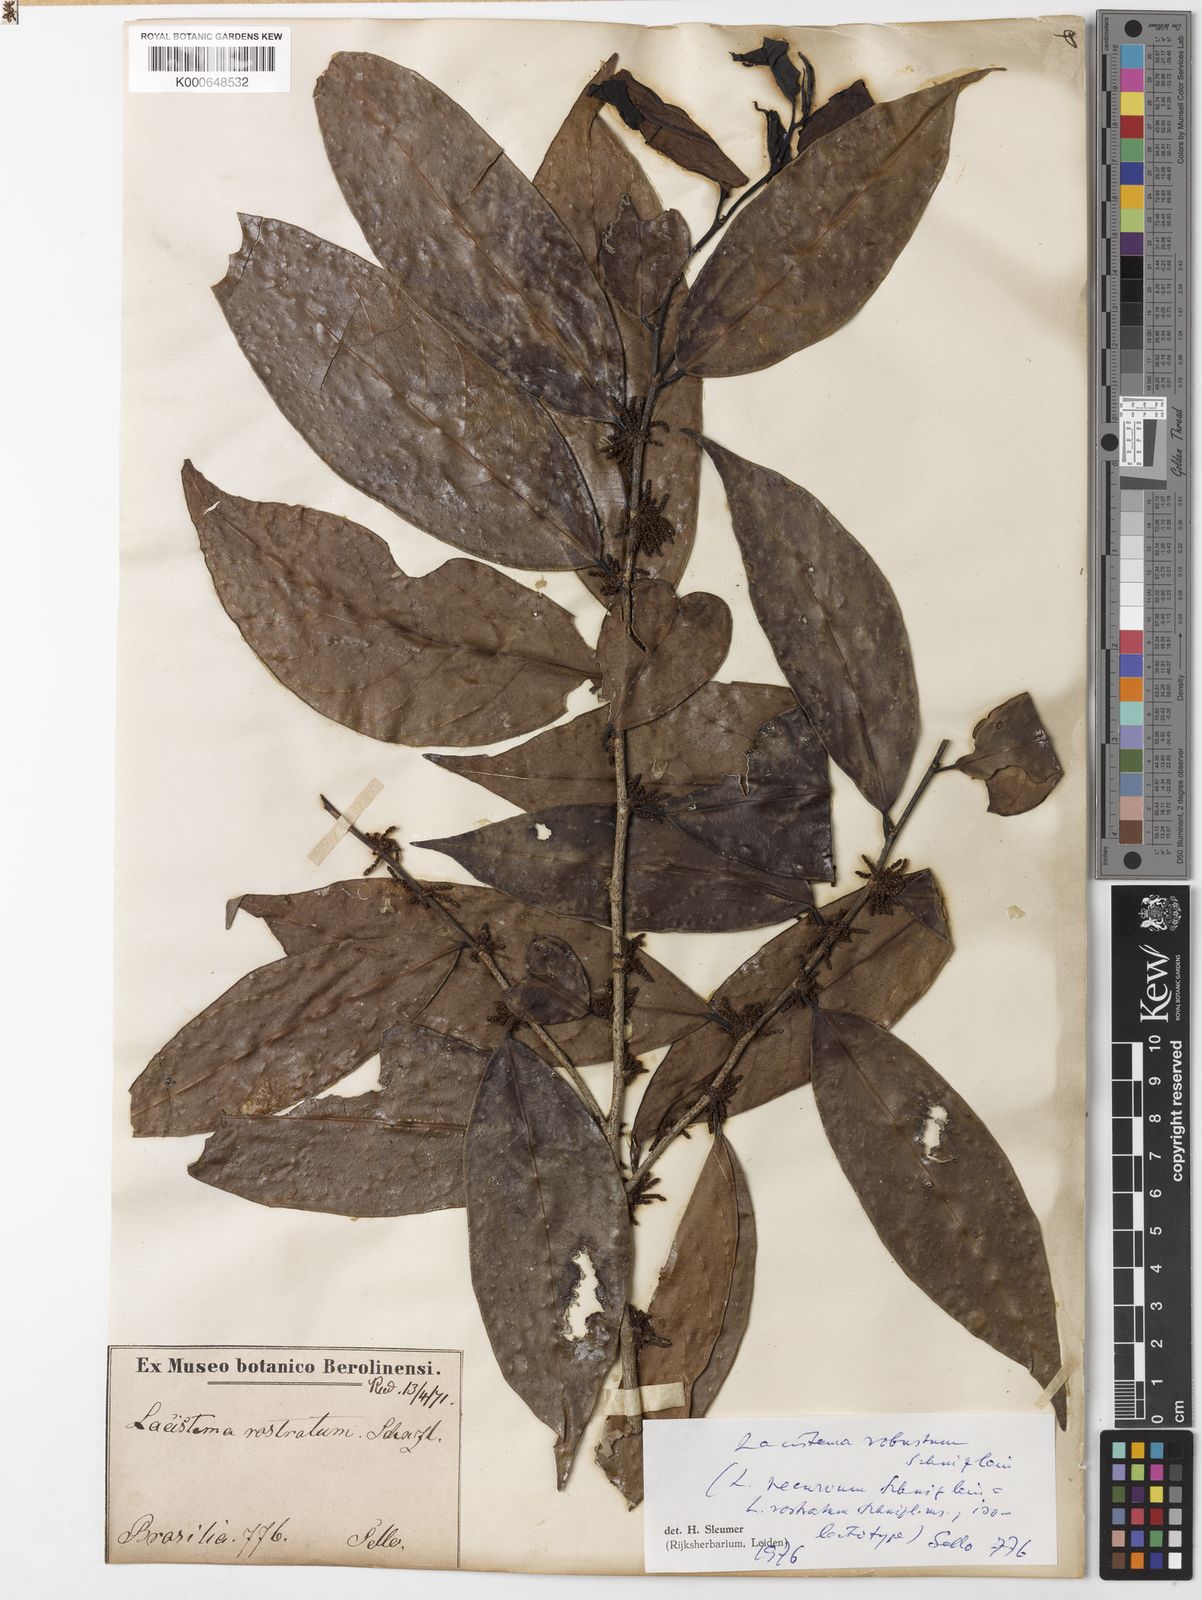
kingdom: Plantae
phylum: Tracheophyta
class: Magnoliopsida
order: Malpighiales
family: Lacistemataceae
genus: Lacistema
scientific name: Lacistema robustum
